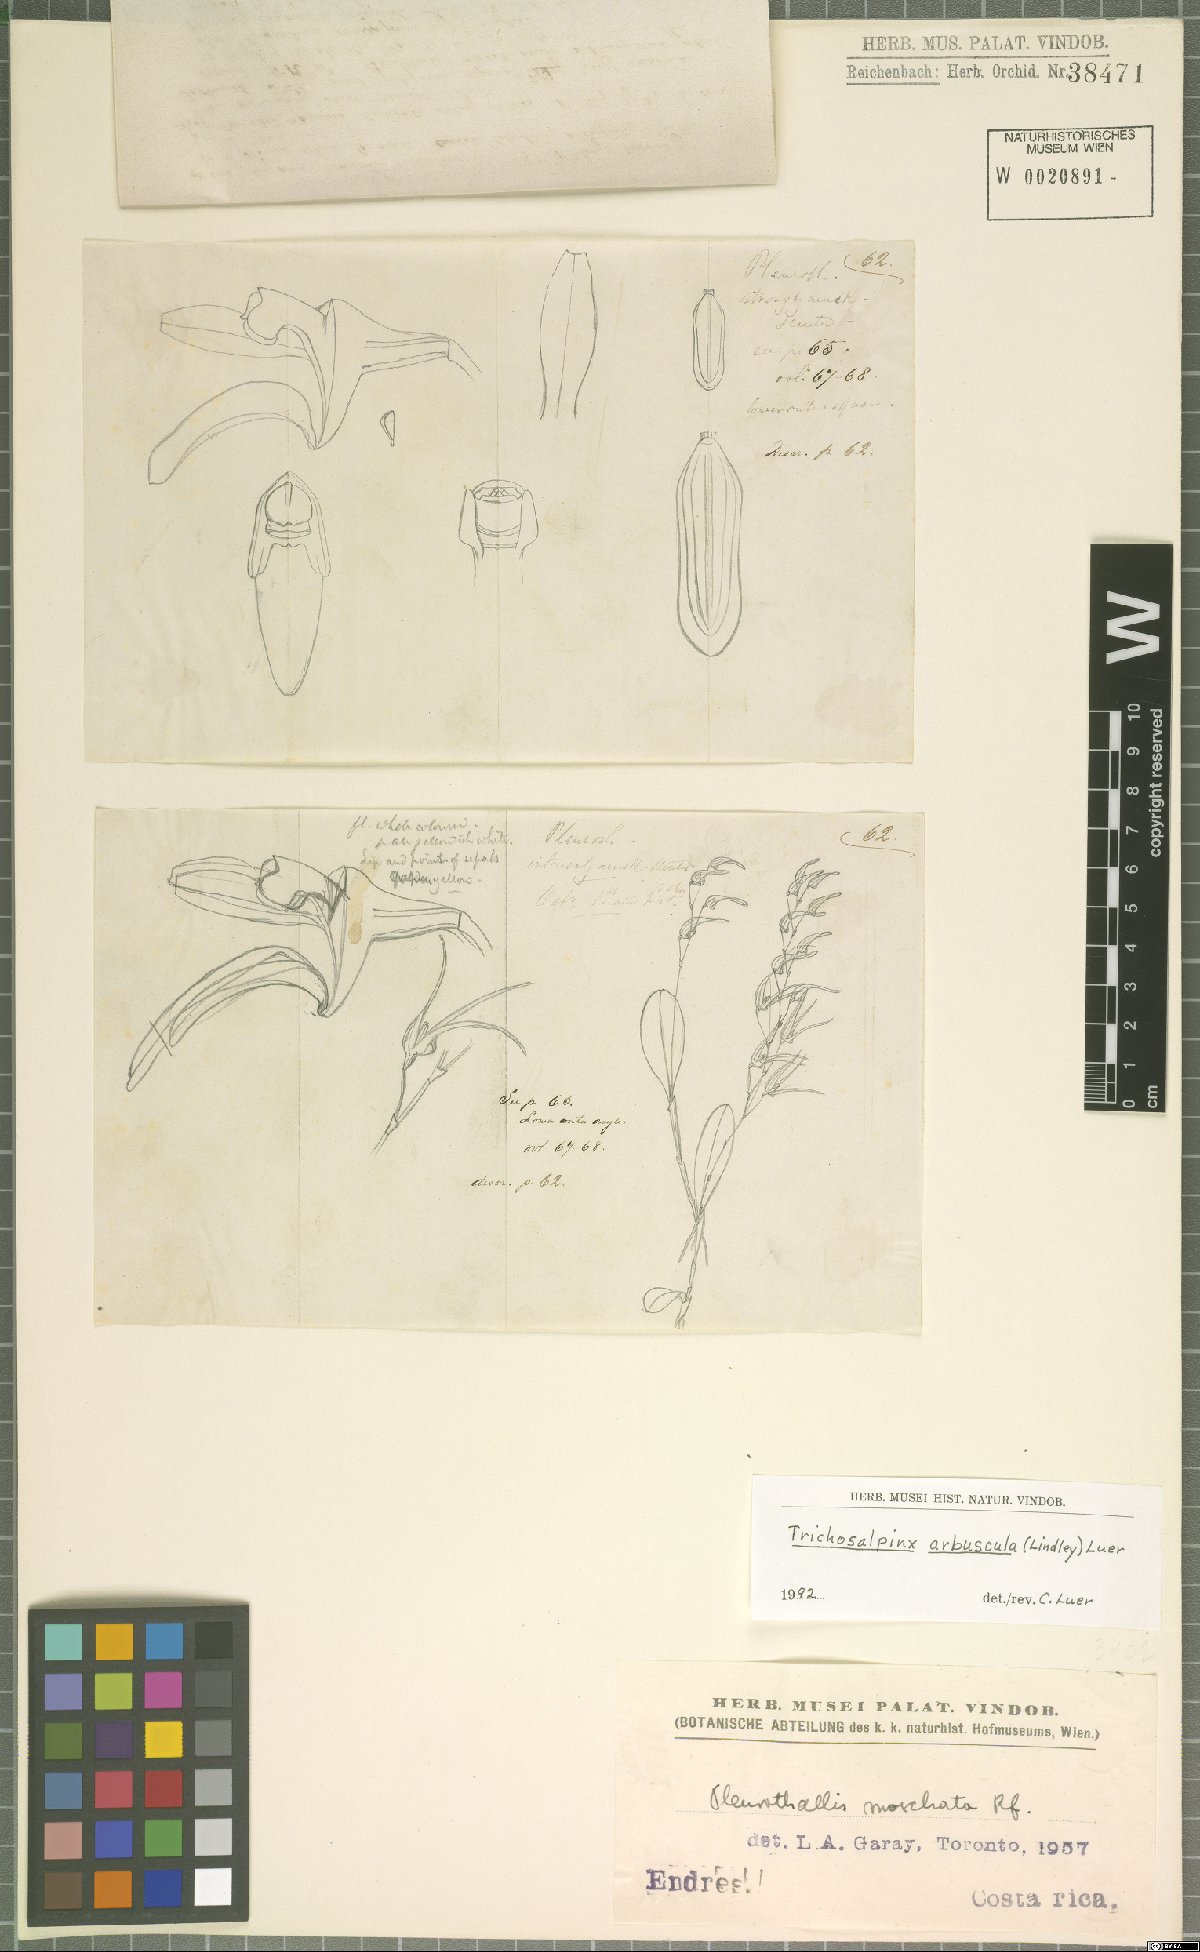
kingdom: Plantae
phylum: Tracheophyta
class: Liliopsida
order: Asparagales
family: Orchidaceae
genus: Trichosalpinx
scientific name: Trichosalpinx arbuscula
